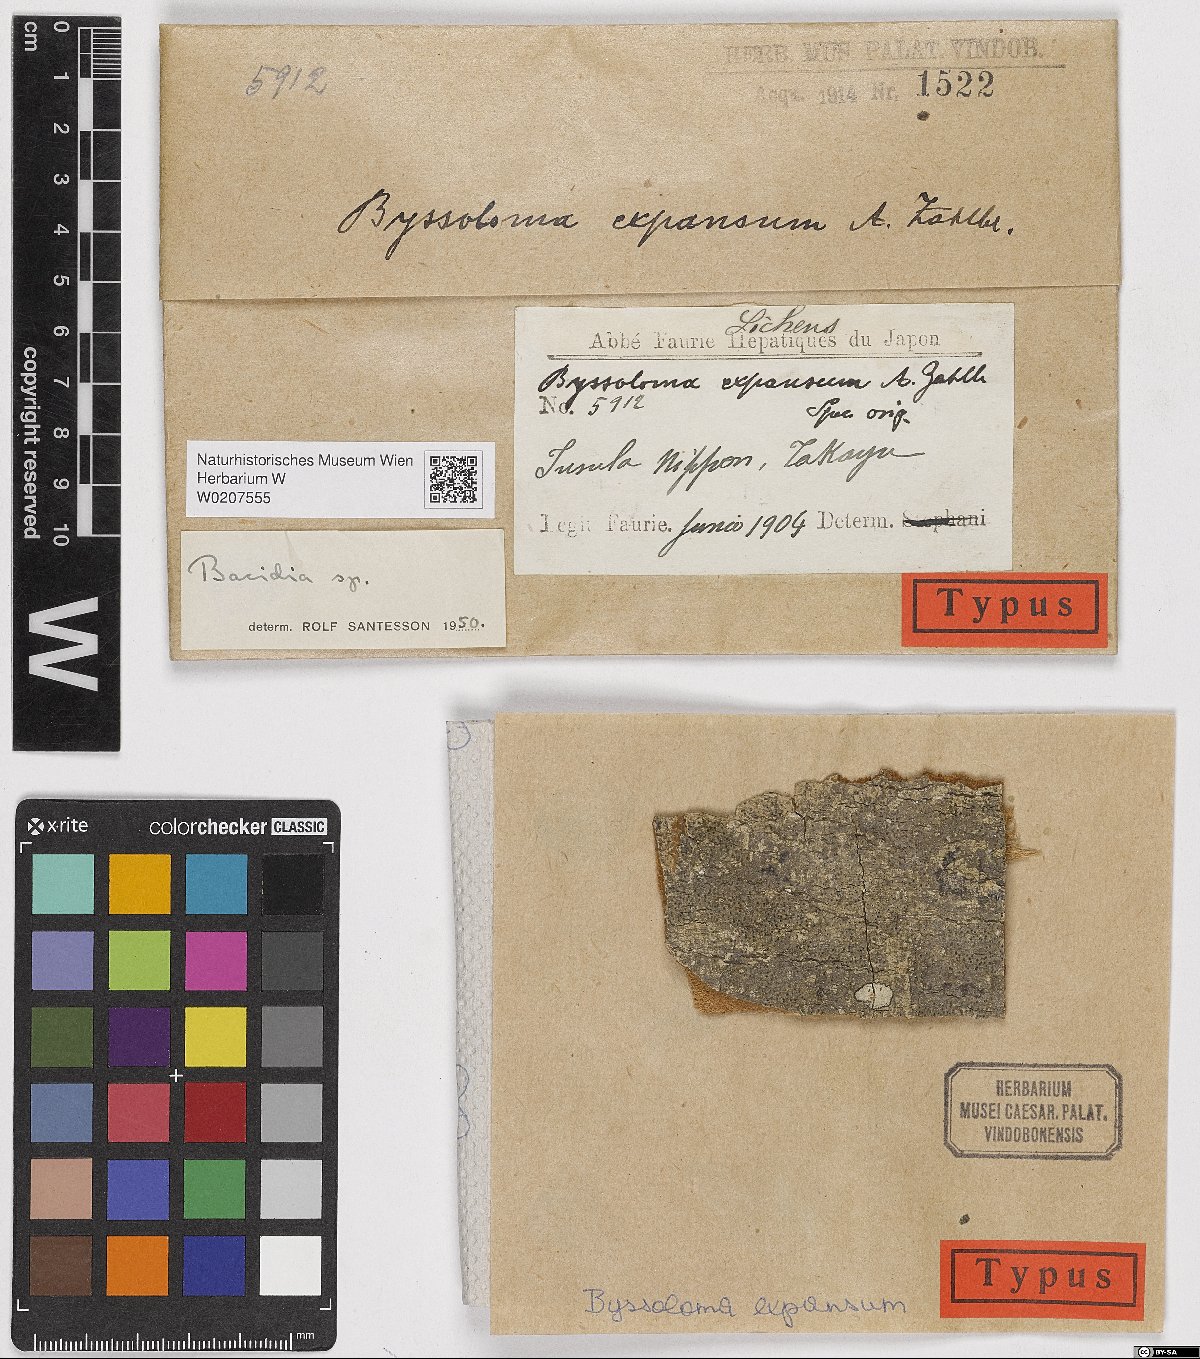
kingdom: Fungi
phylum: Ascomycota
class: Lecanoromycetes
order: Lecanorales
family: Pilocarpaceae
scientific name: Pilocarpaceae
